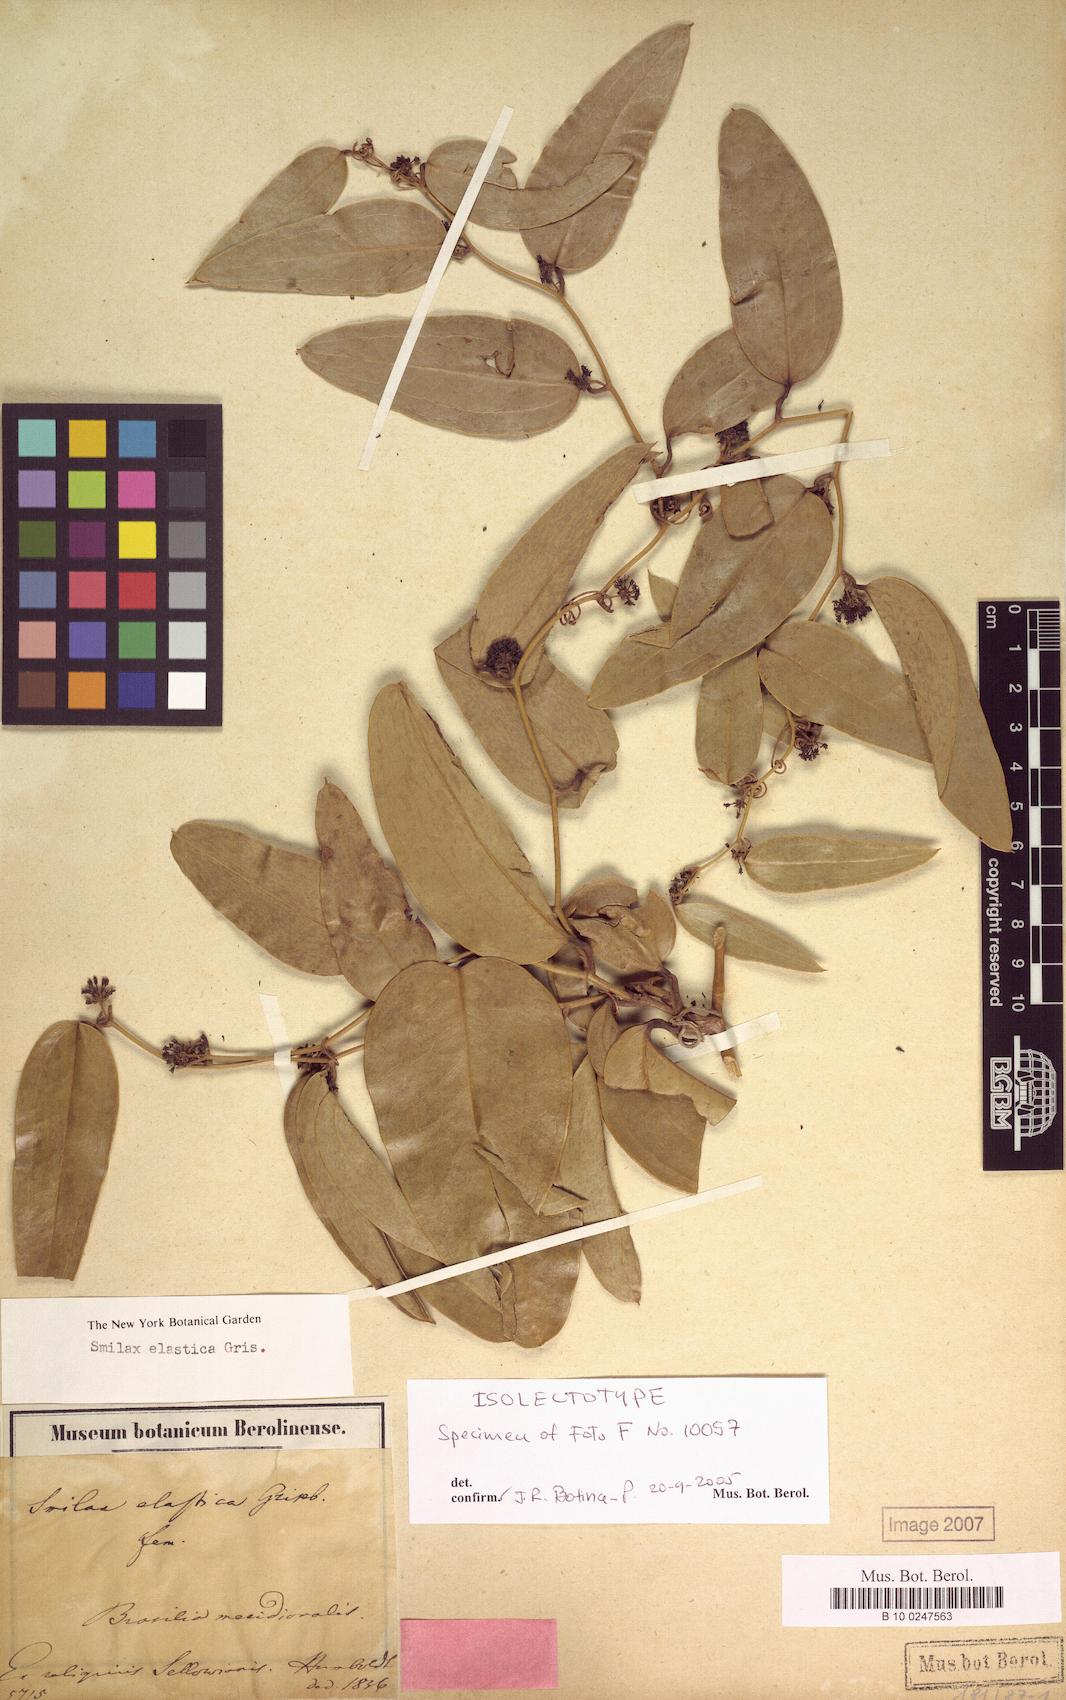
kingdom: Plantae
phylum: Tracheophyta
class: Liliopsida
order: Liliales
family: Smilacaceae
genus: Smilax
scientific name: Smilax elastica
